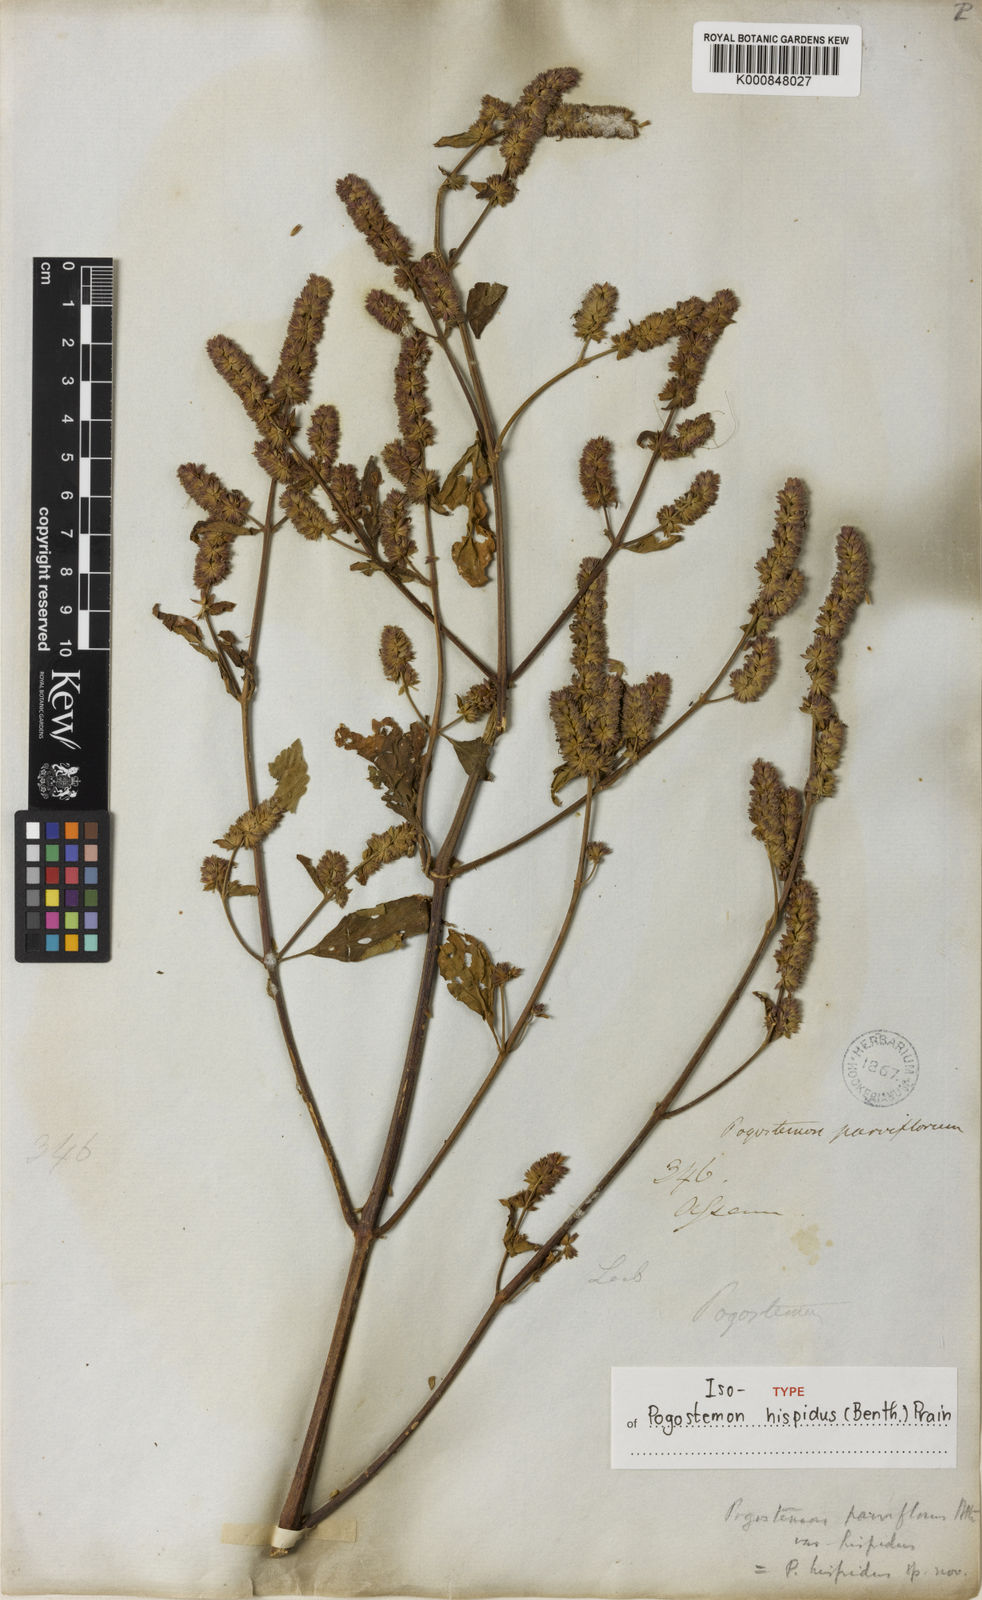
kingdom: Plantae
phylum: Tracheophyta
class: Magnoliopsida
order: Lamiales
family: Lamiaceae
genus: Pogostemon
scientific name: Pogostemon hispidus
